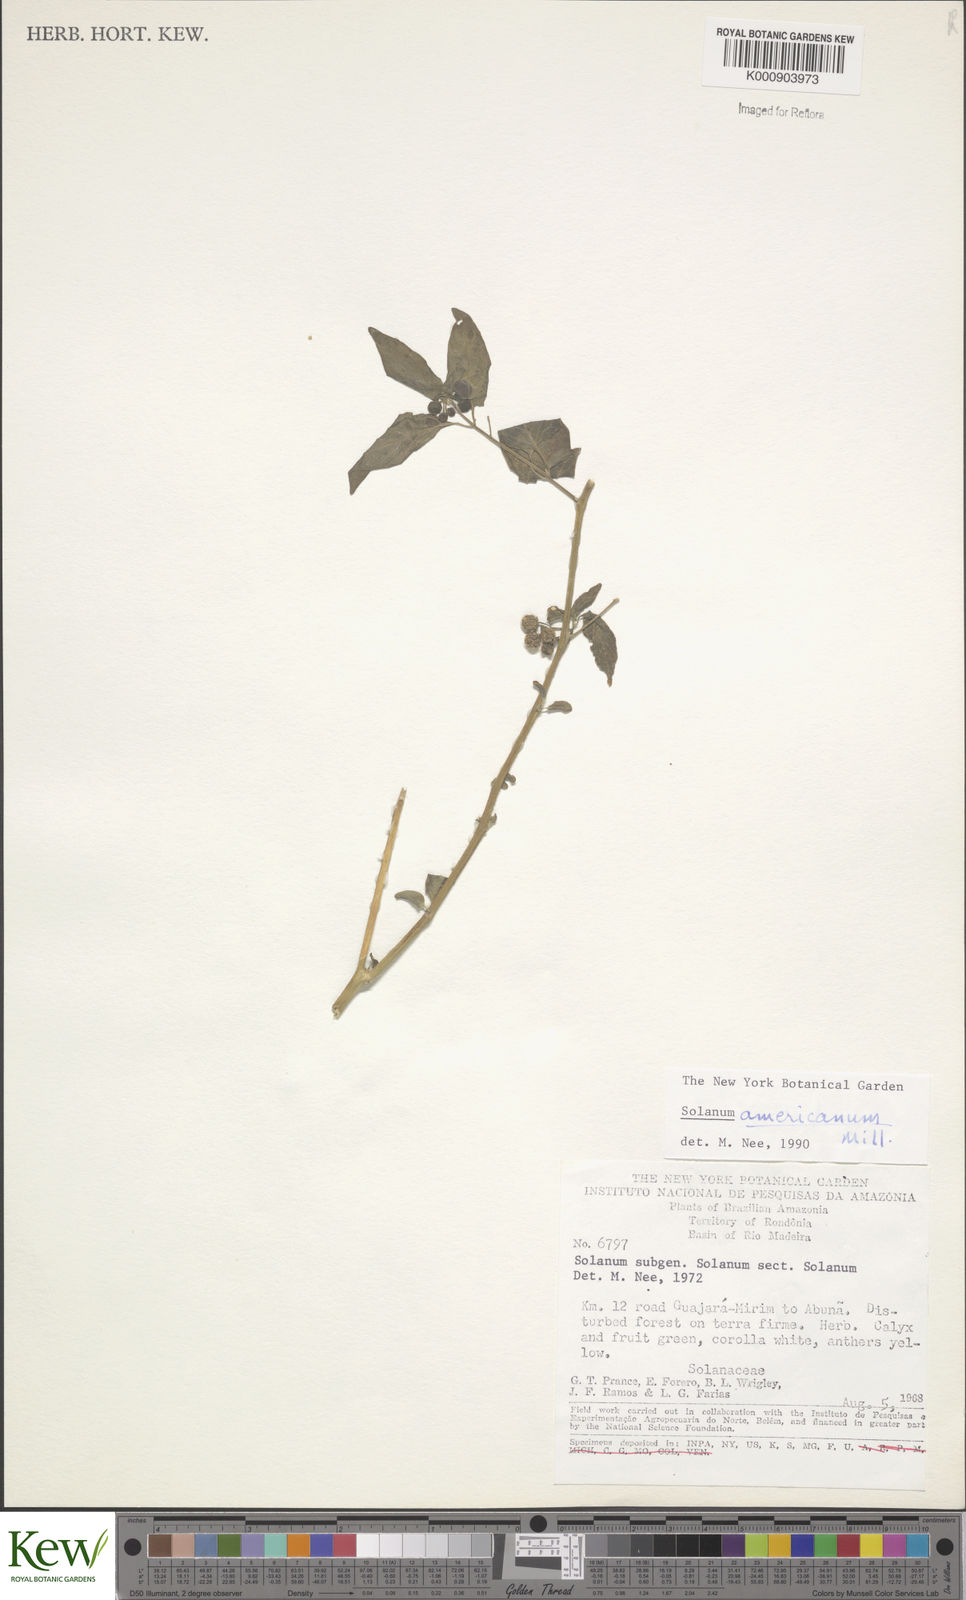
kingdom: Plantae
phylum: Tracheophyta
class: Magnoliopsida
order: Solanales
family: Solanaceae
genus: Solanum
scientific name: Solanum americanum
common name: American black nightshade
